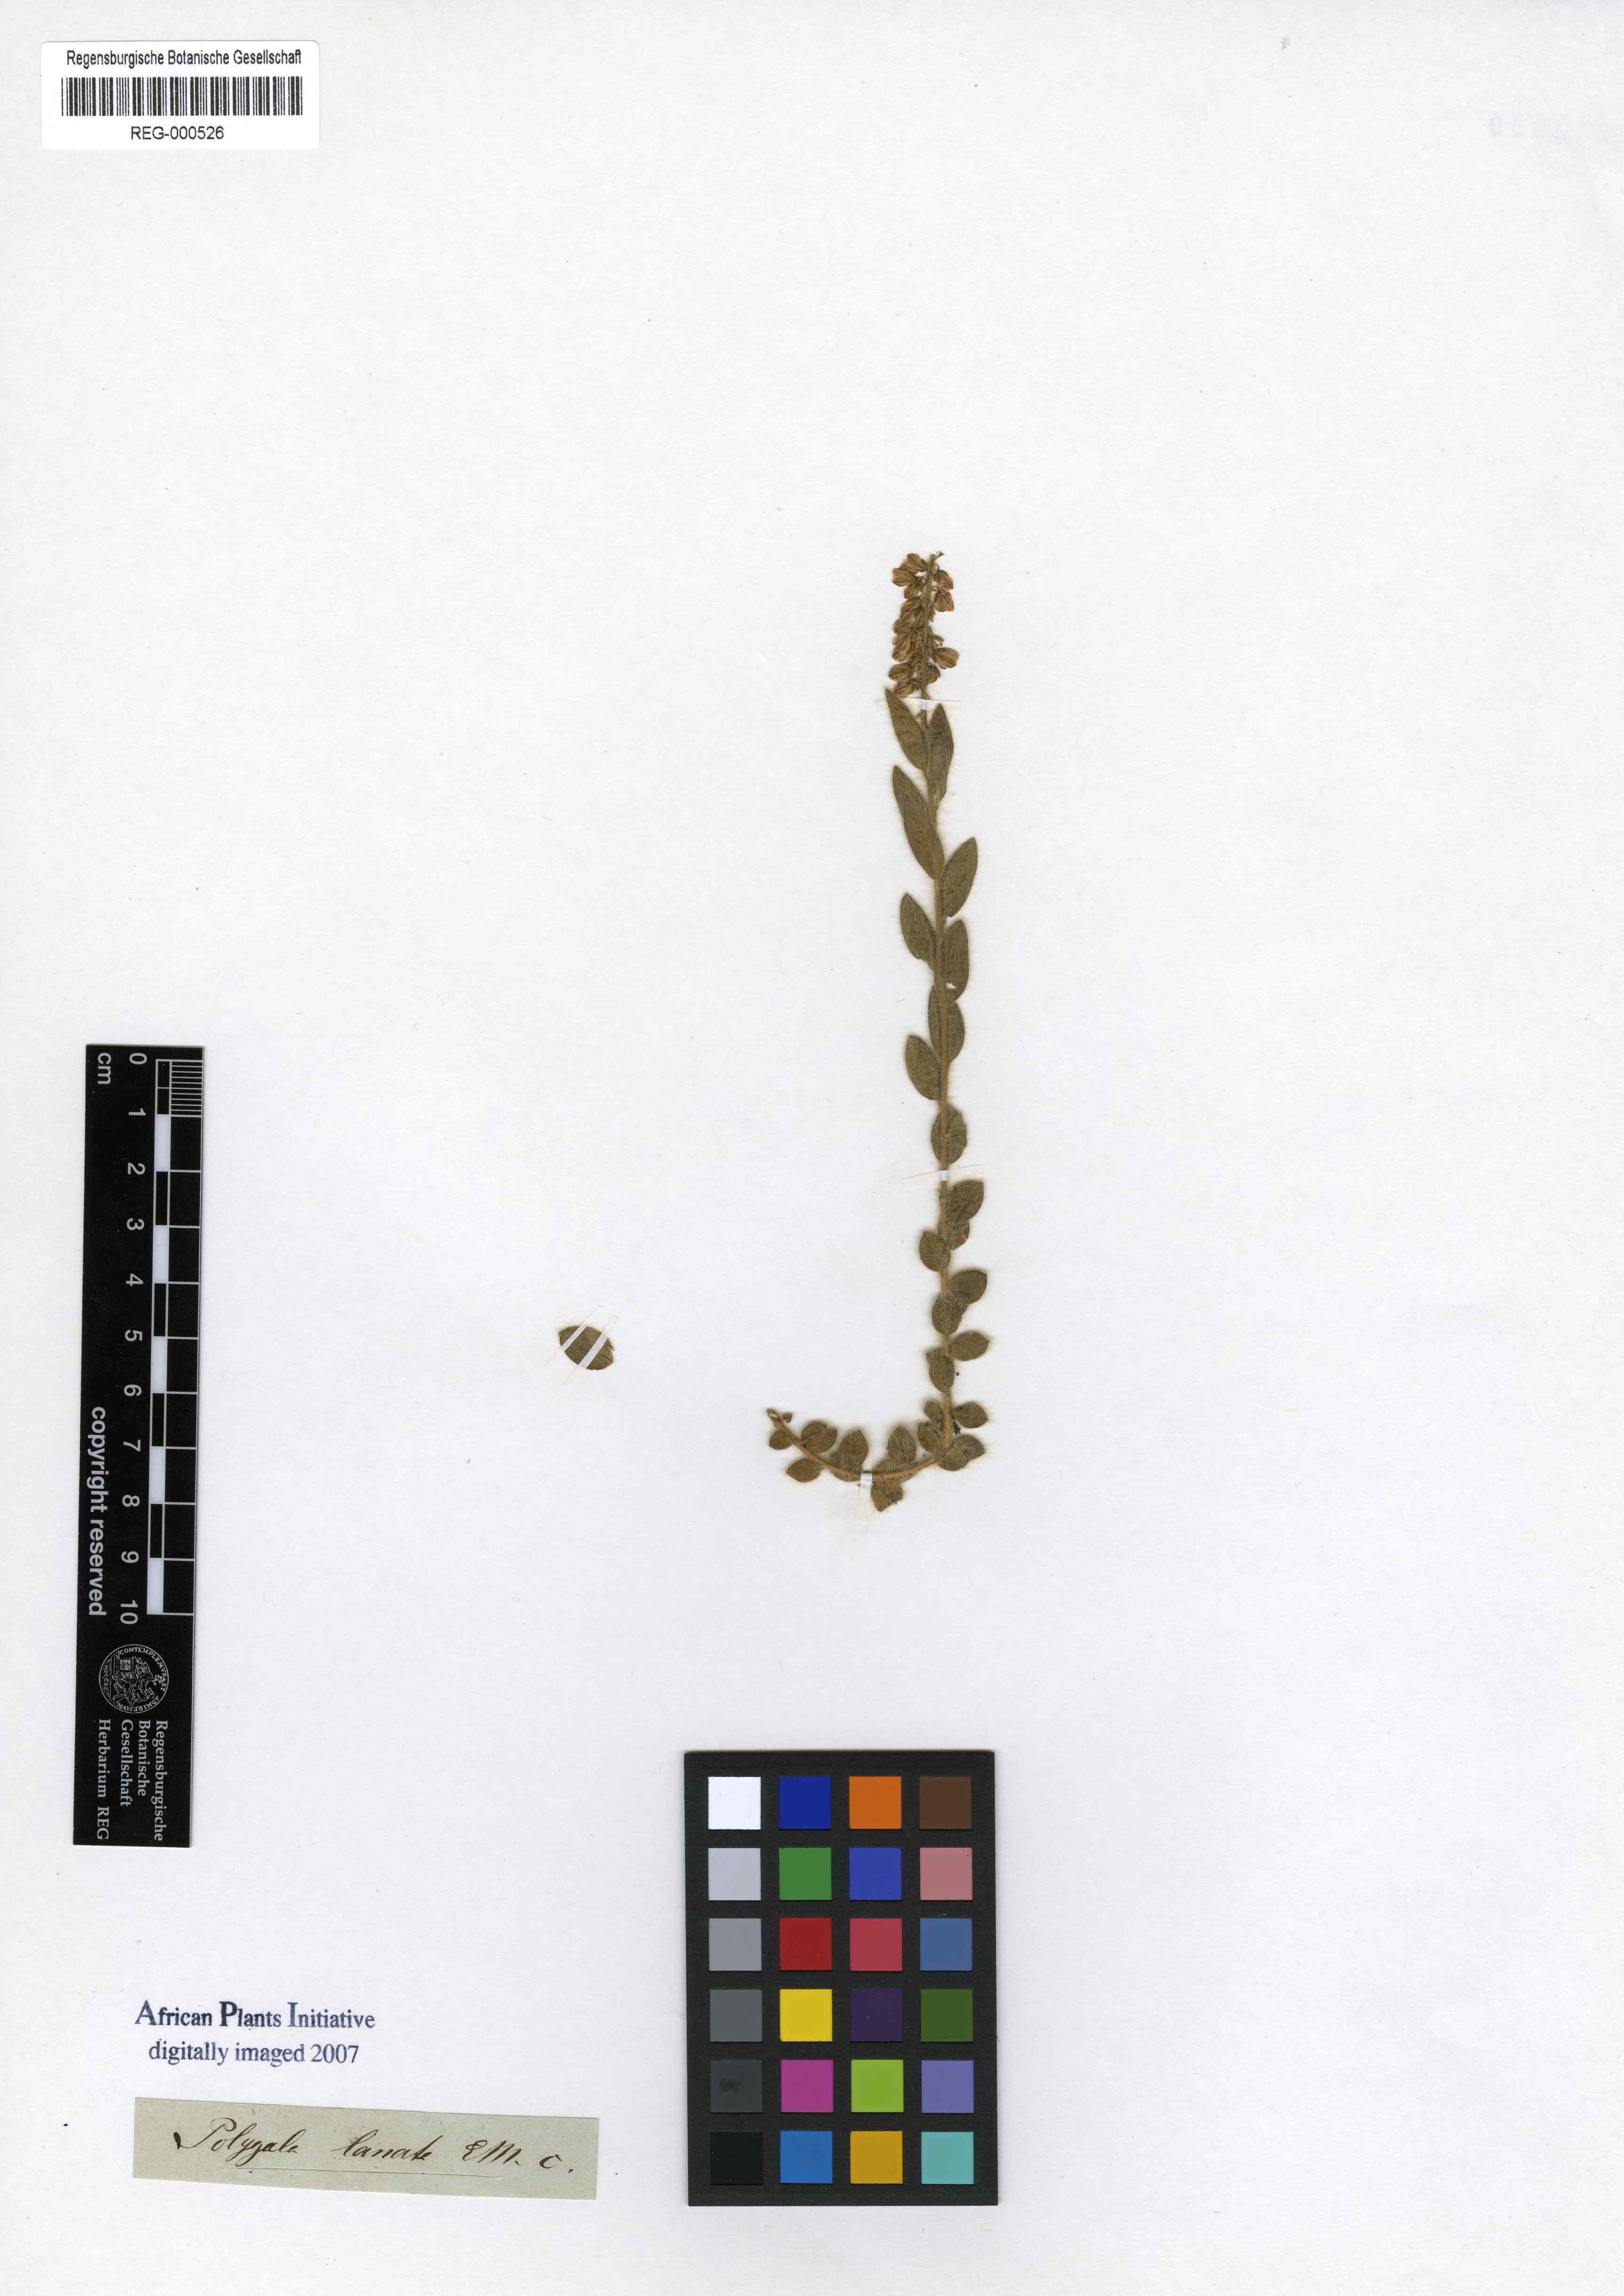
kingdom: Plantae
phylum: Tracheophyta
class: Magnoliopsida
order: Fabales
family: Polygalaceae
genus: Polygala
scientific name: Polygala hispida
